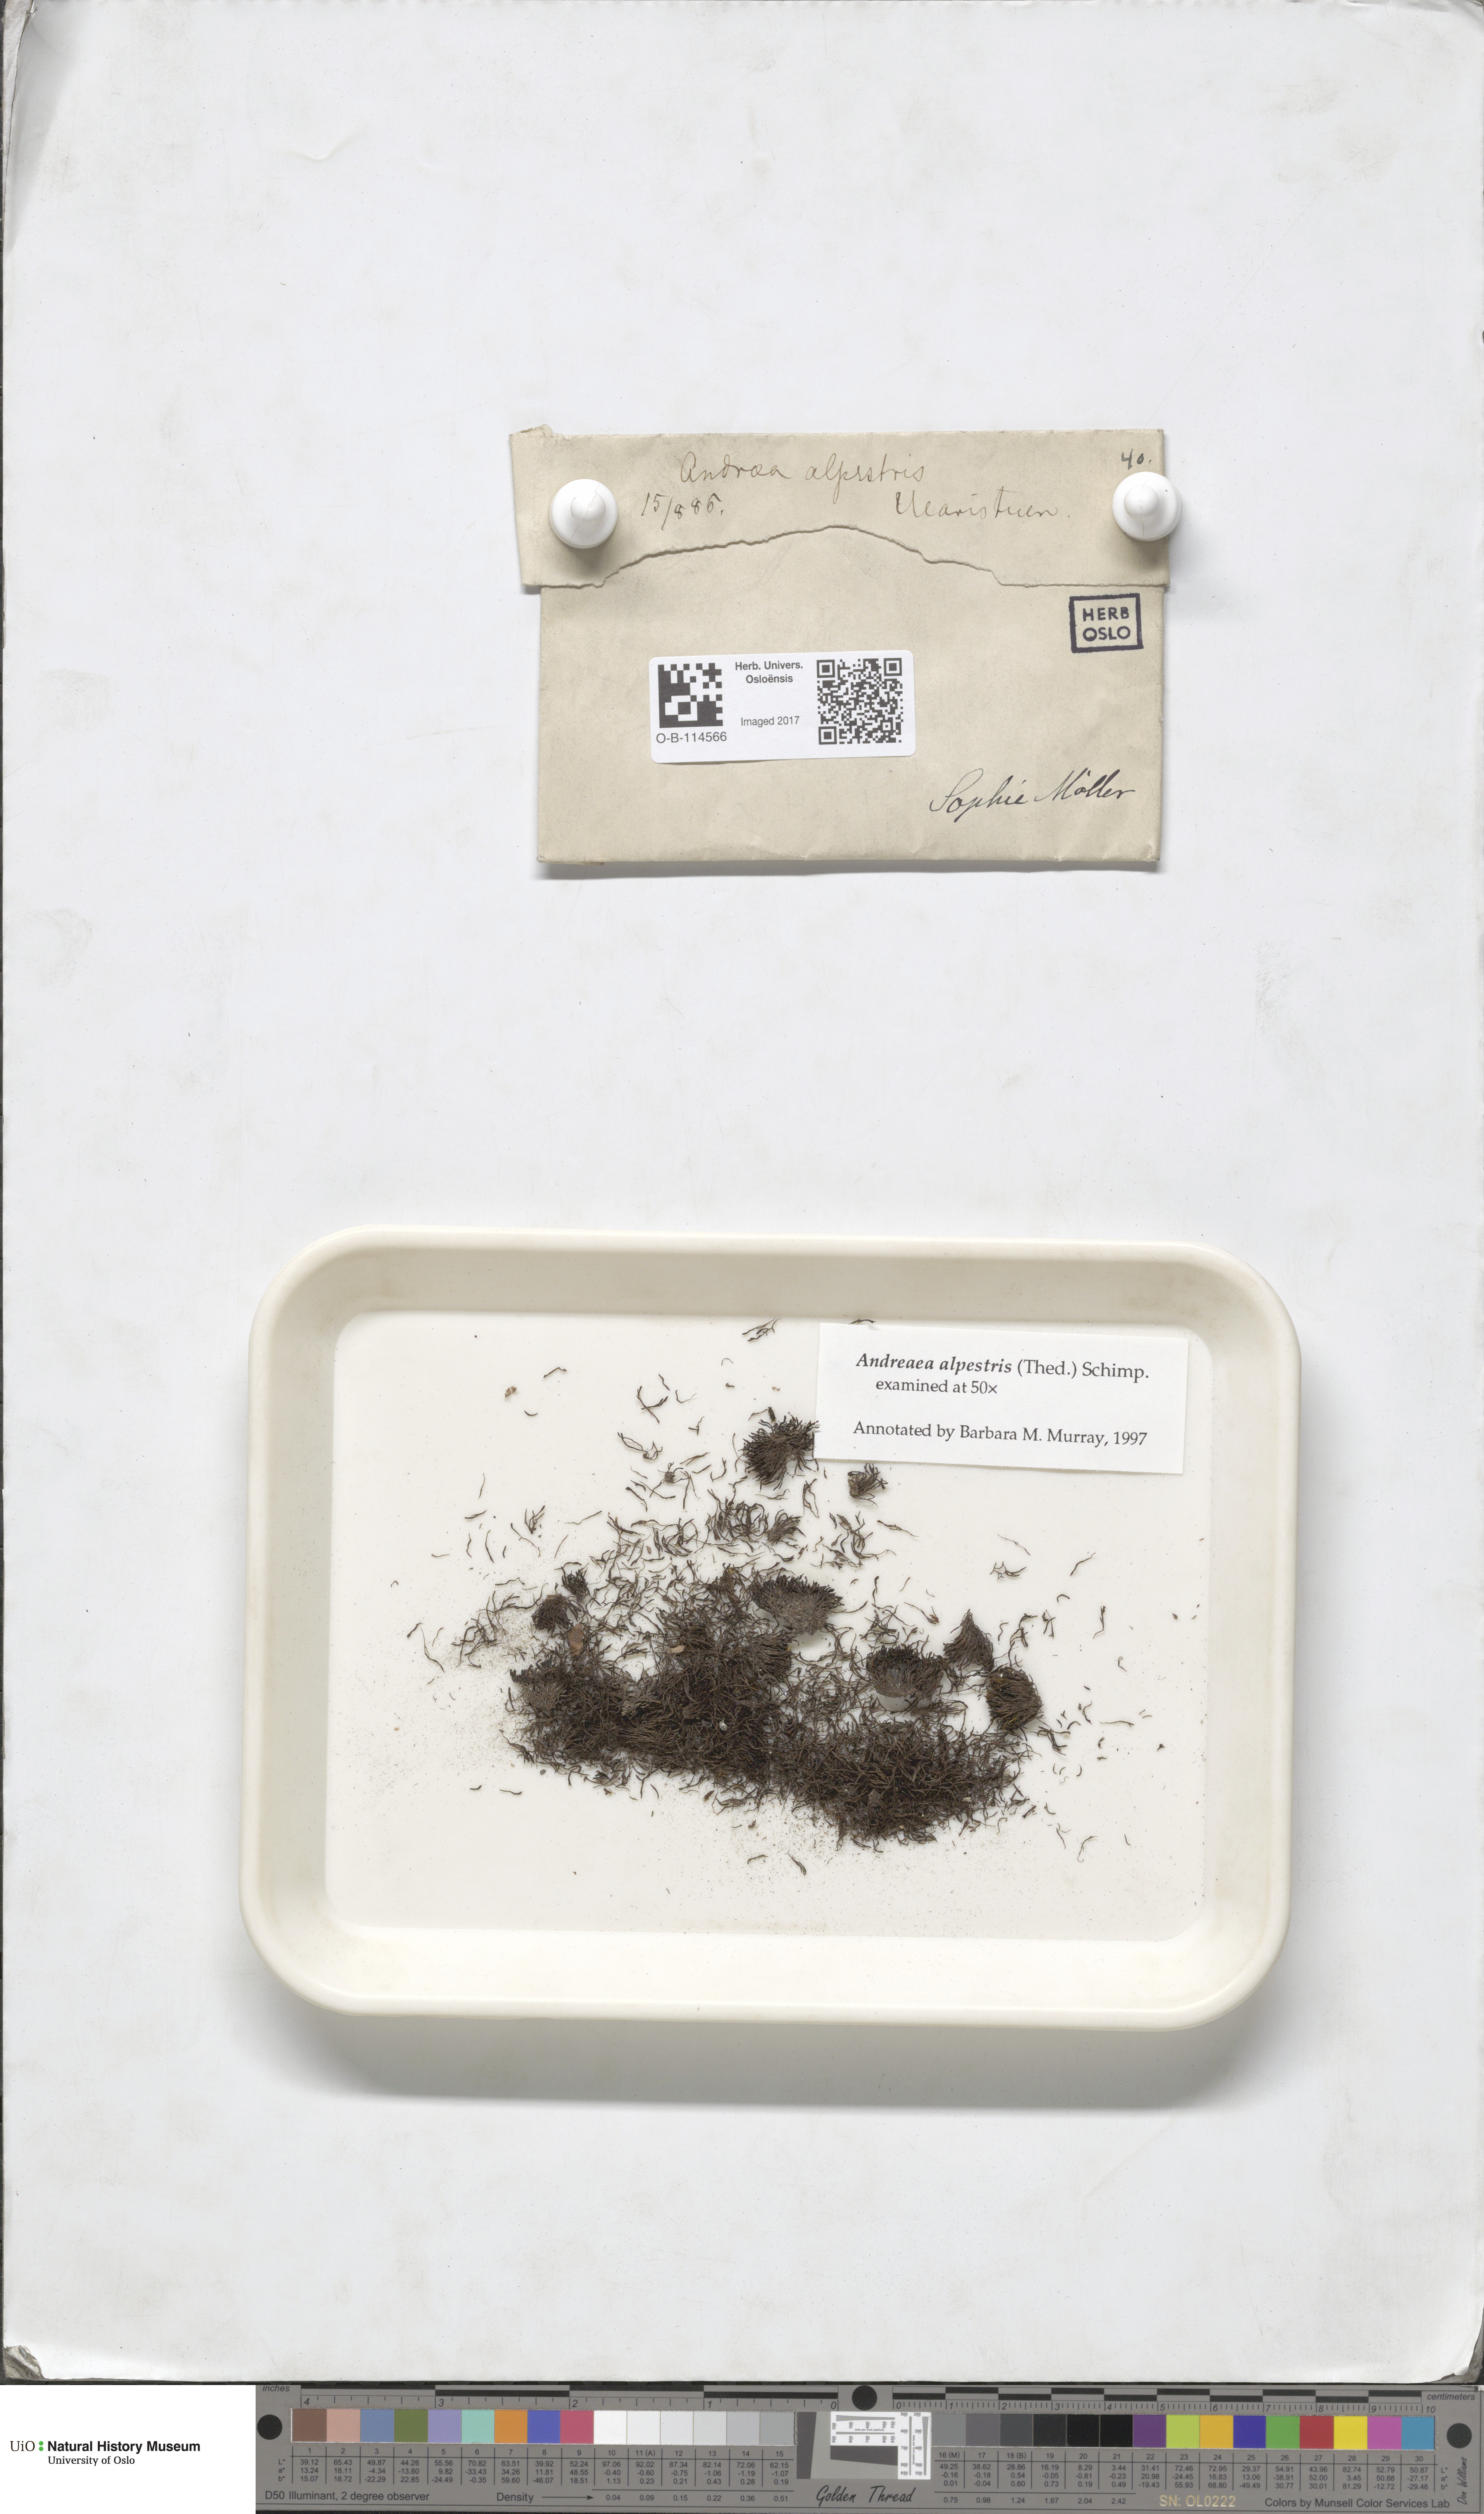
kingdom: Plantae
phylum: Bryophyta
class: Andreaeopsida
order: Andreaeales
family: Andreaeaceae
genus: Andreaea
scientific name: Andreaea alpestris
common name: Slender rock-moss
